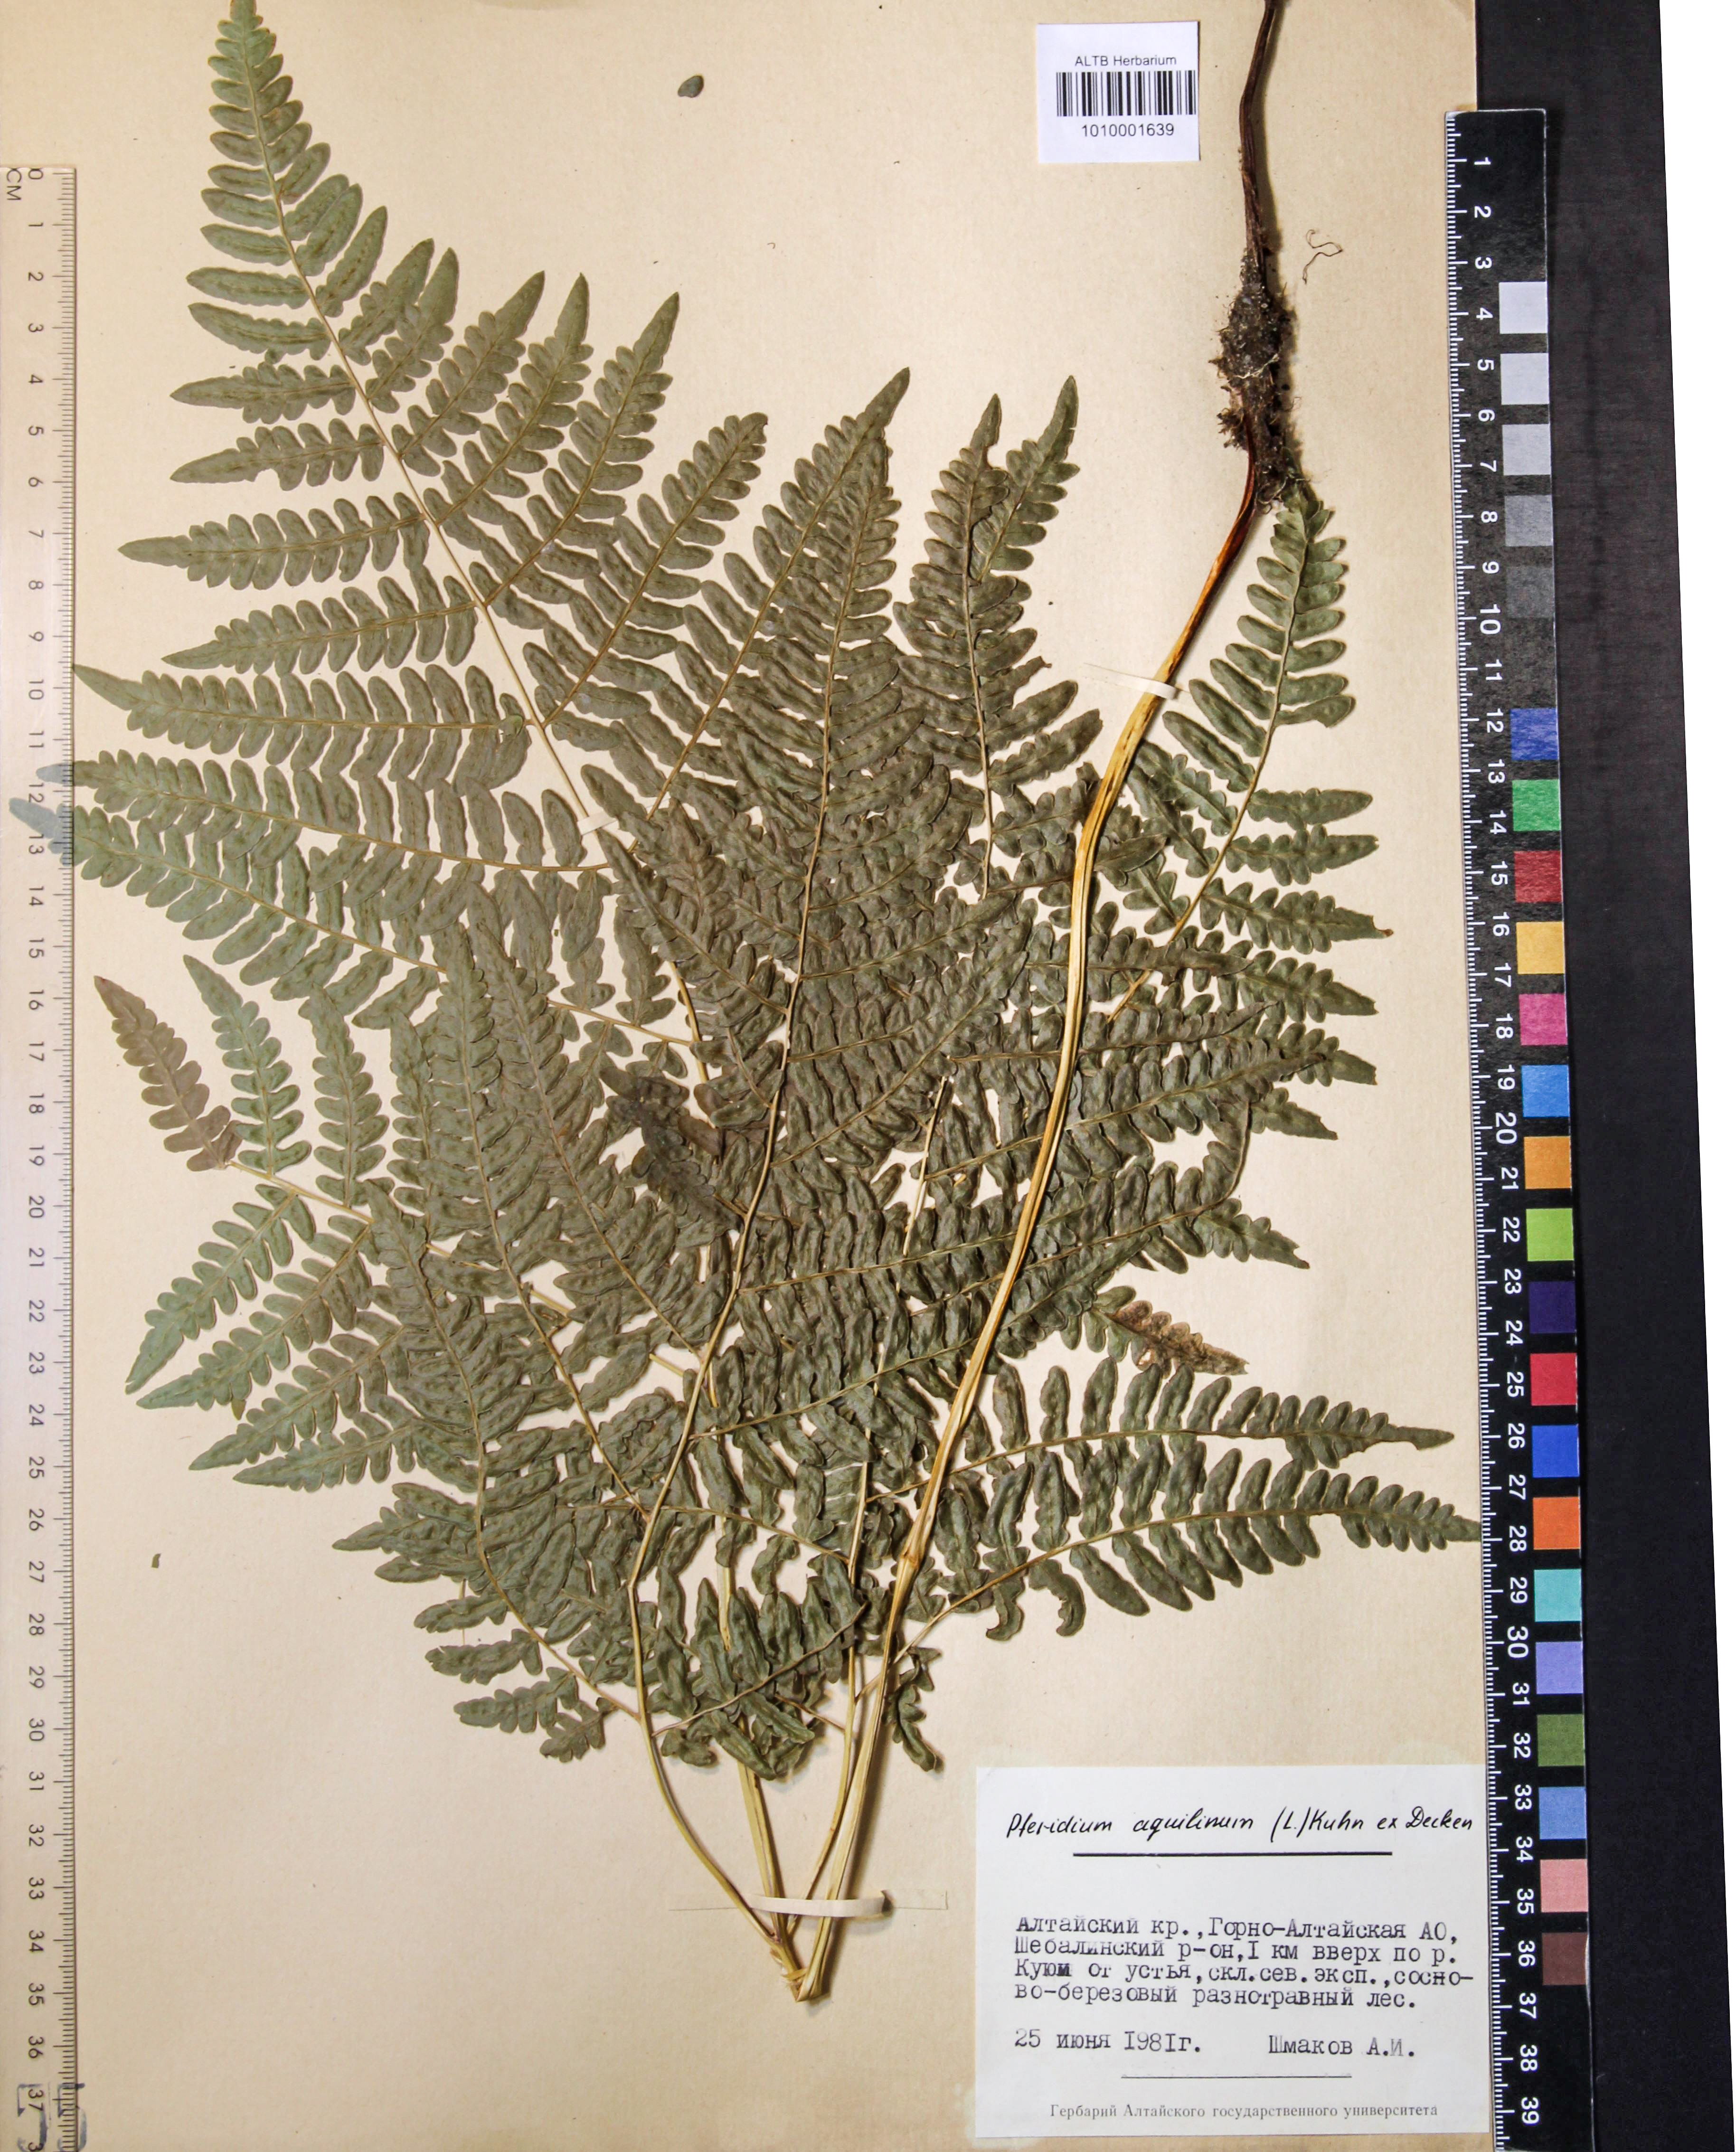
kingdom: Plantae
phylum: Tracheophyta
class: Polypodiopsida
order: Polypodiales
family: Dennstaedtiaceae
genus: Pteridium
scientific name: Pteridium aquilinum
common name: Bracken
